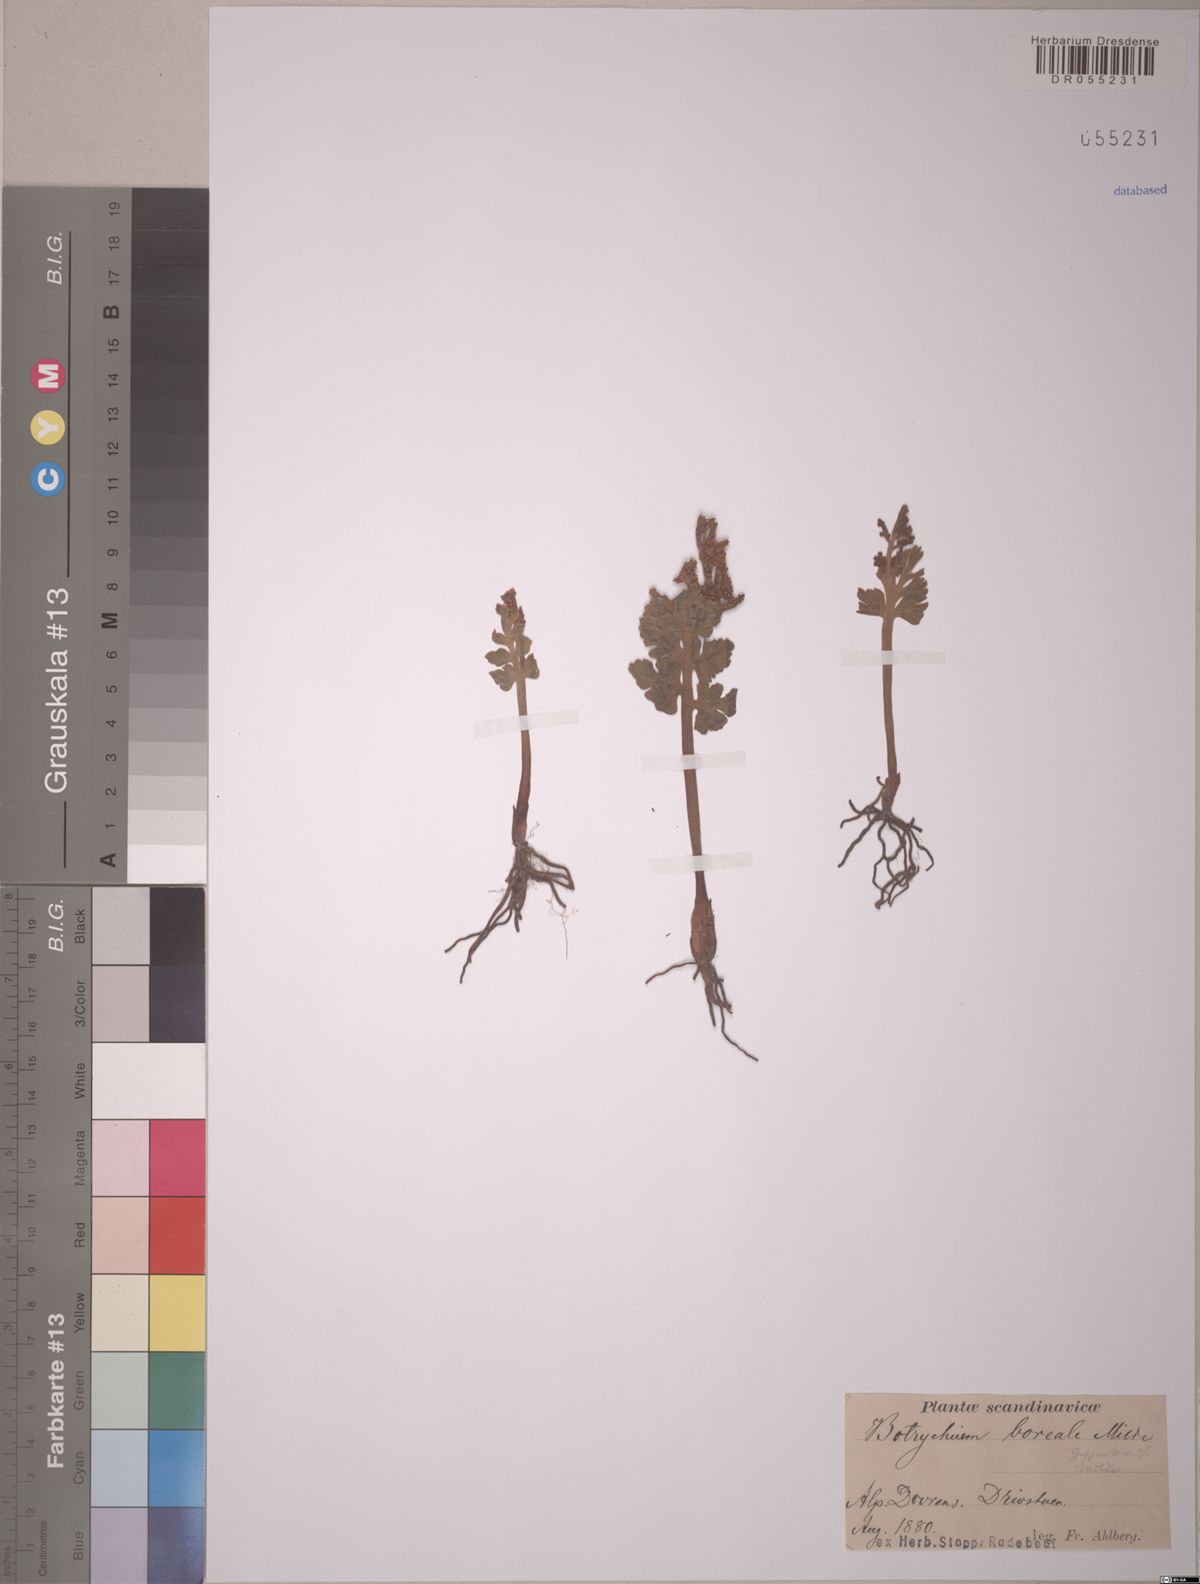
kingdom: Plantae
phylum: Tracheophyta
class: Polypodiopsida
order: Ophioglossales
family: Ophioglossaceae
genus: Botrychium
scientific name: Botrychium boreale
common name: Boreal moonwort
